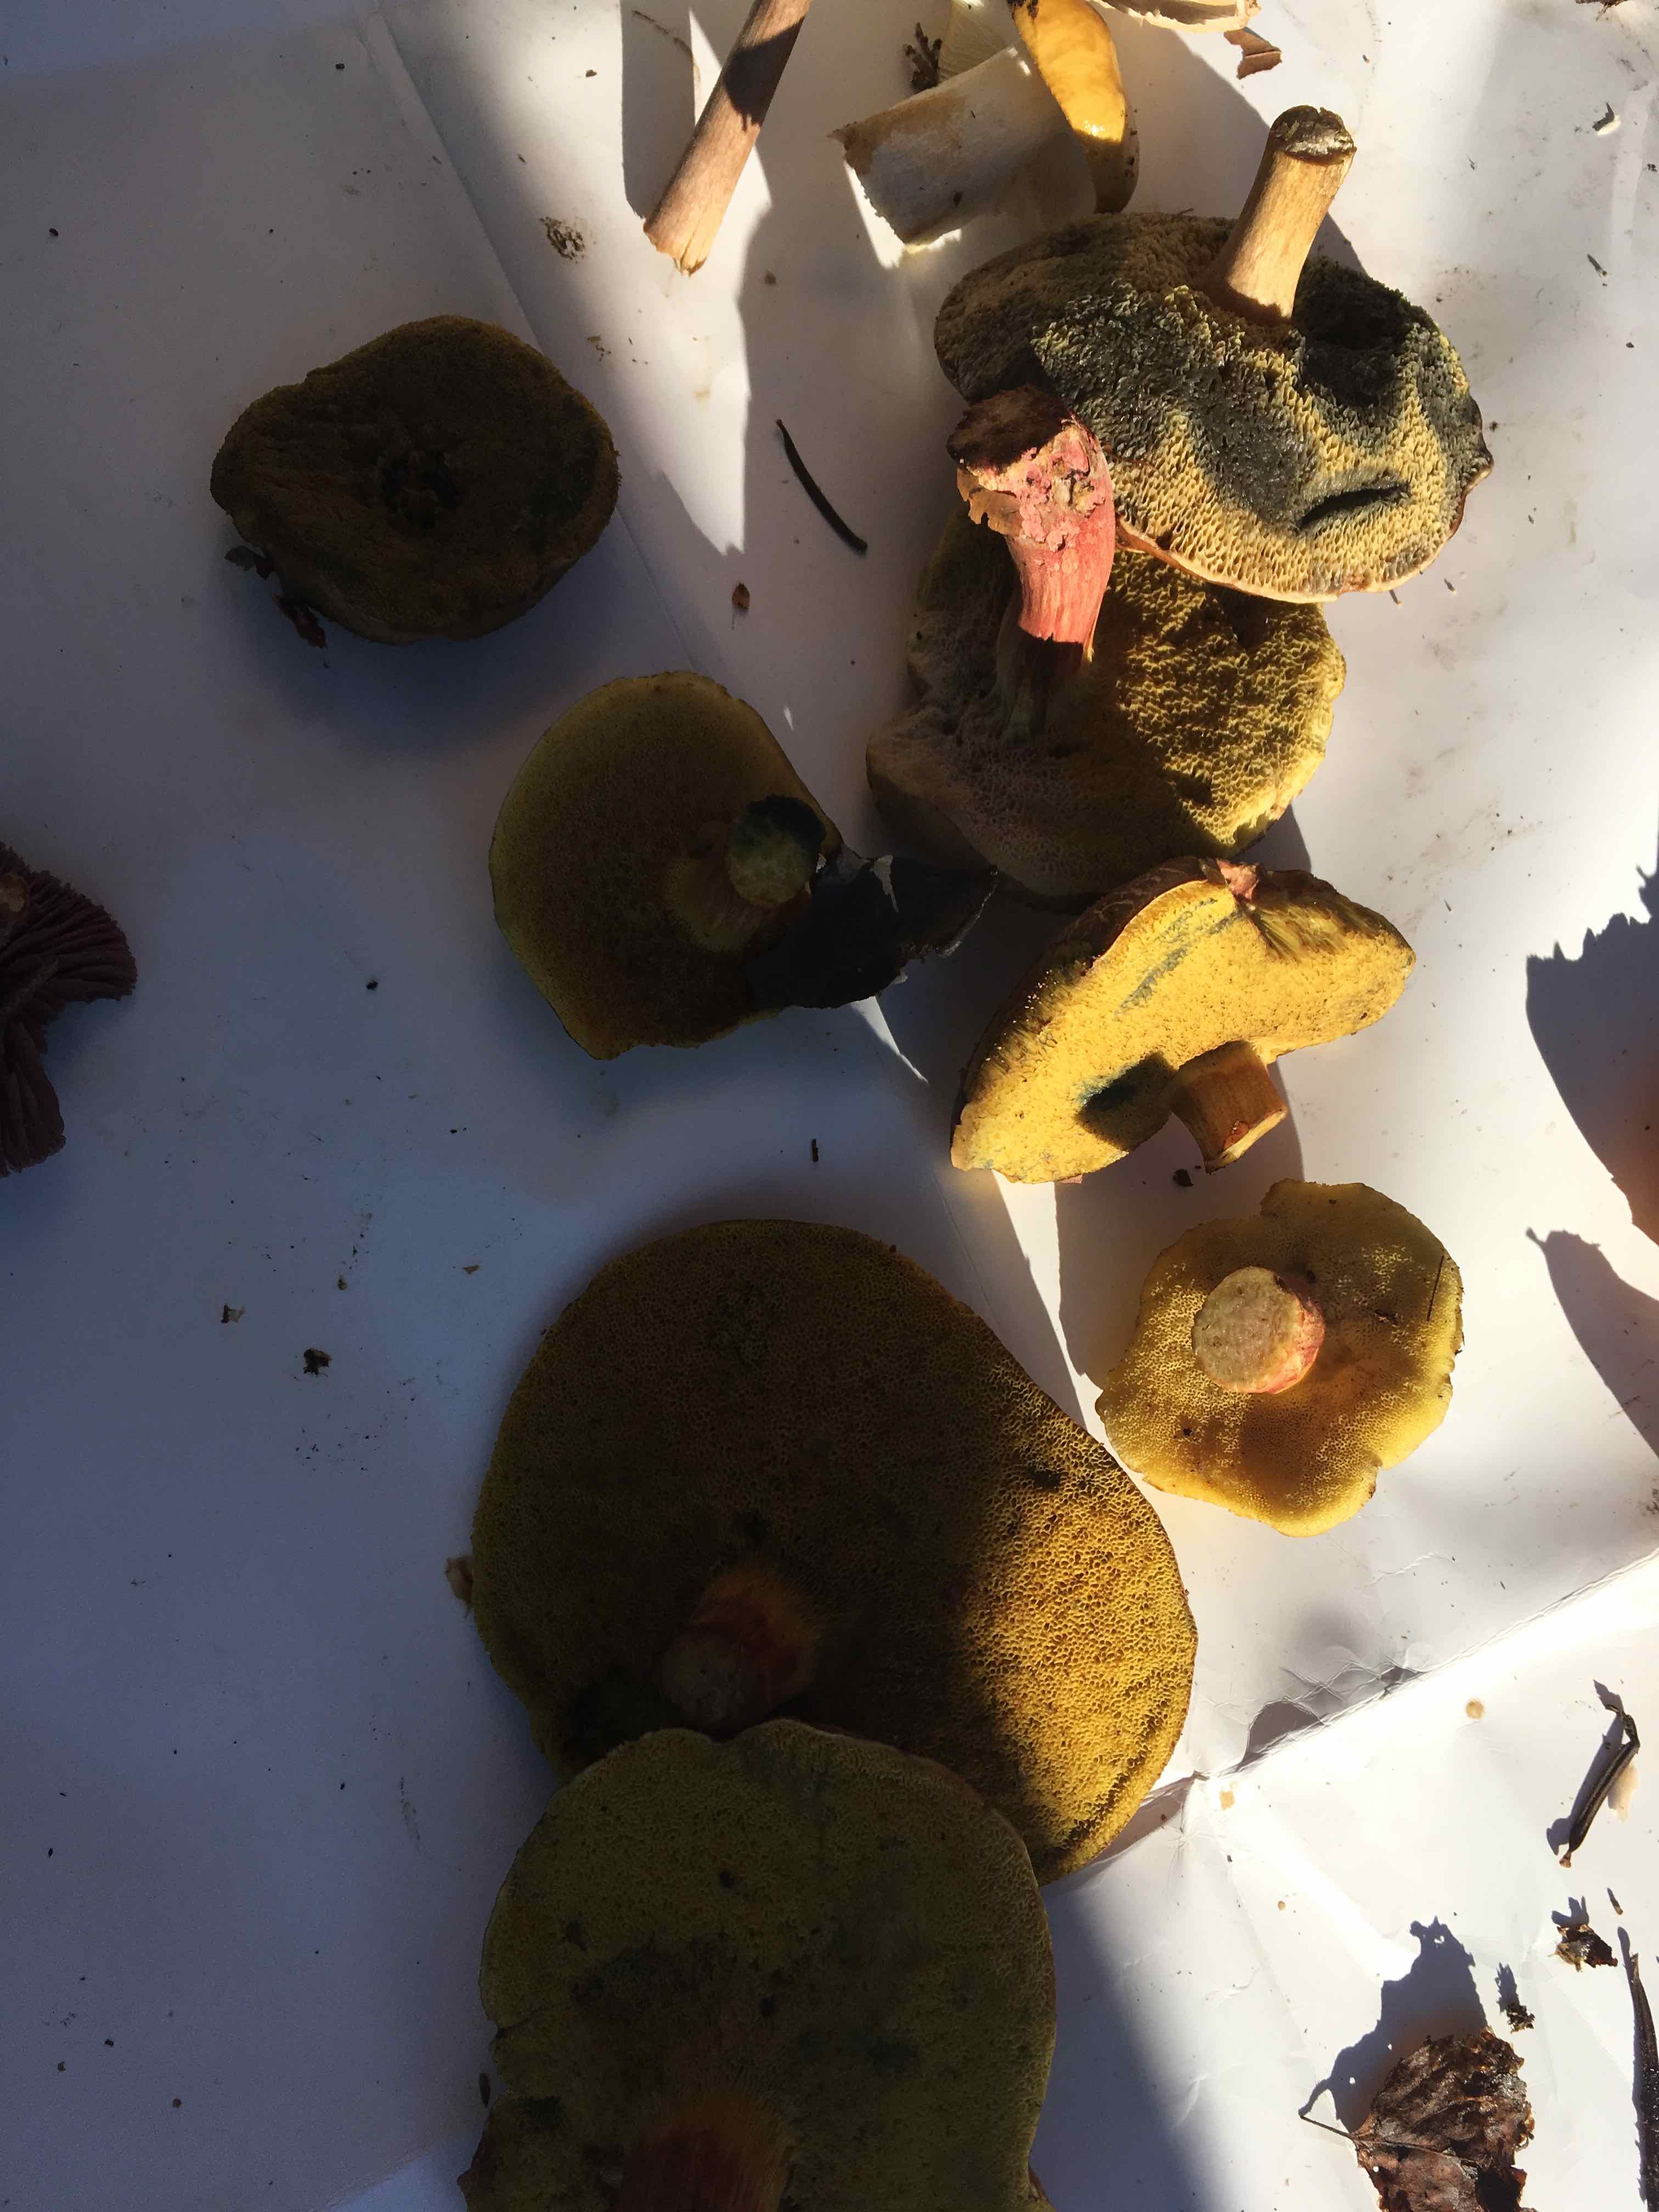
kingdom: Fungi
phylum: Basidiomycota
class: Agaricomycetes
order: Boletales
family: Boletaceae
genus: Xerocomellus
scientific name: Xerocomellus
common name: dværgrørhat
